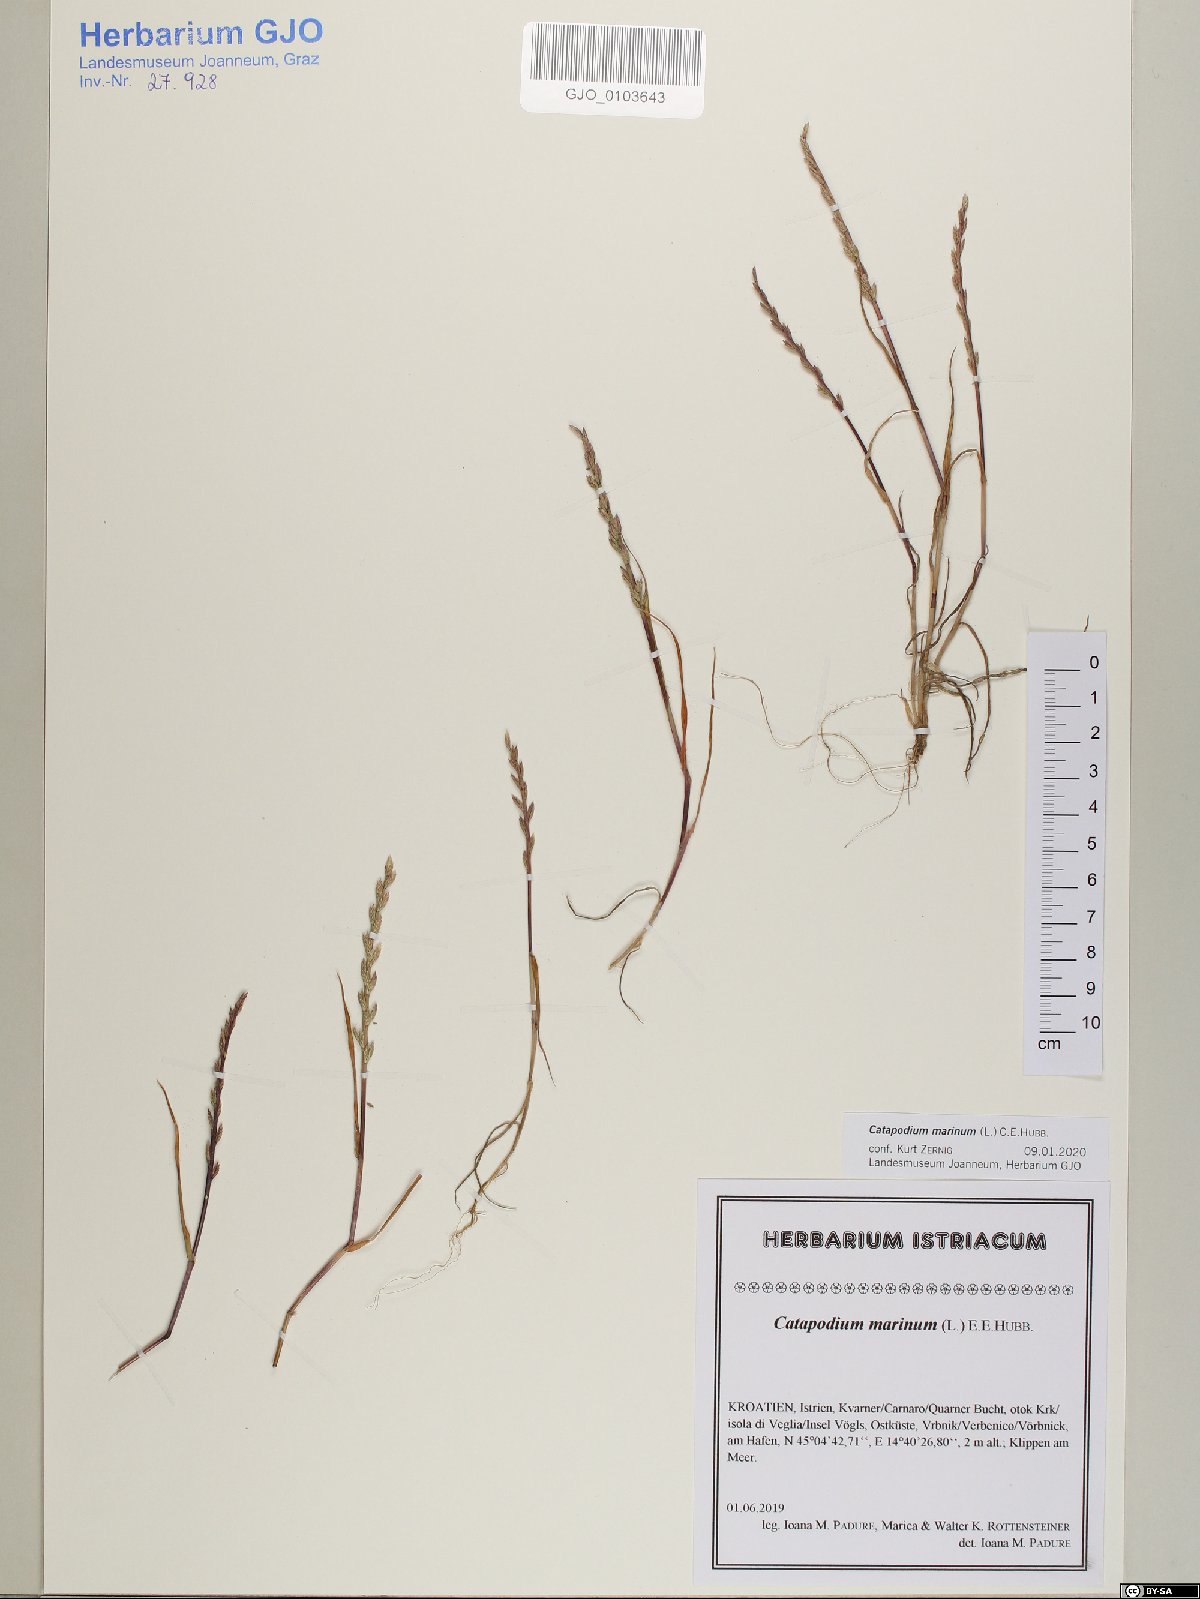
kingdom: Plantae
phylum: Tracheophyta
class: Liliopsida
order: Poales
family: Poaceae
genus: Catapodium
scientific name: Catapodium marinum
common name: Sea fern-grass
